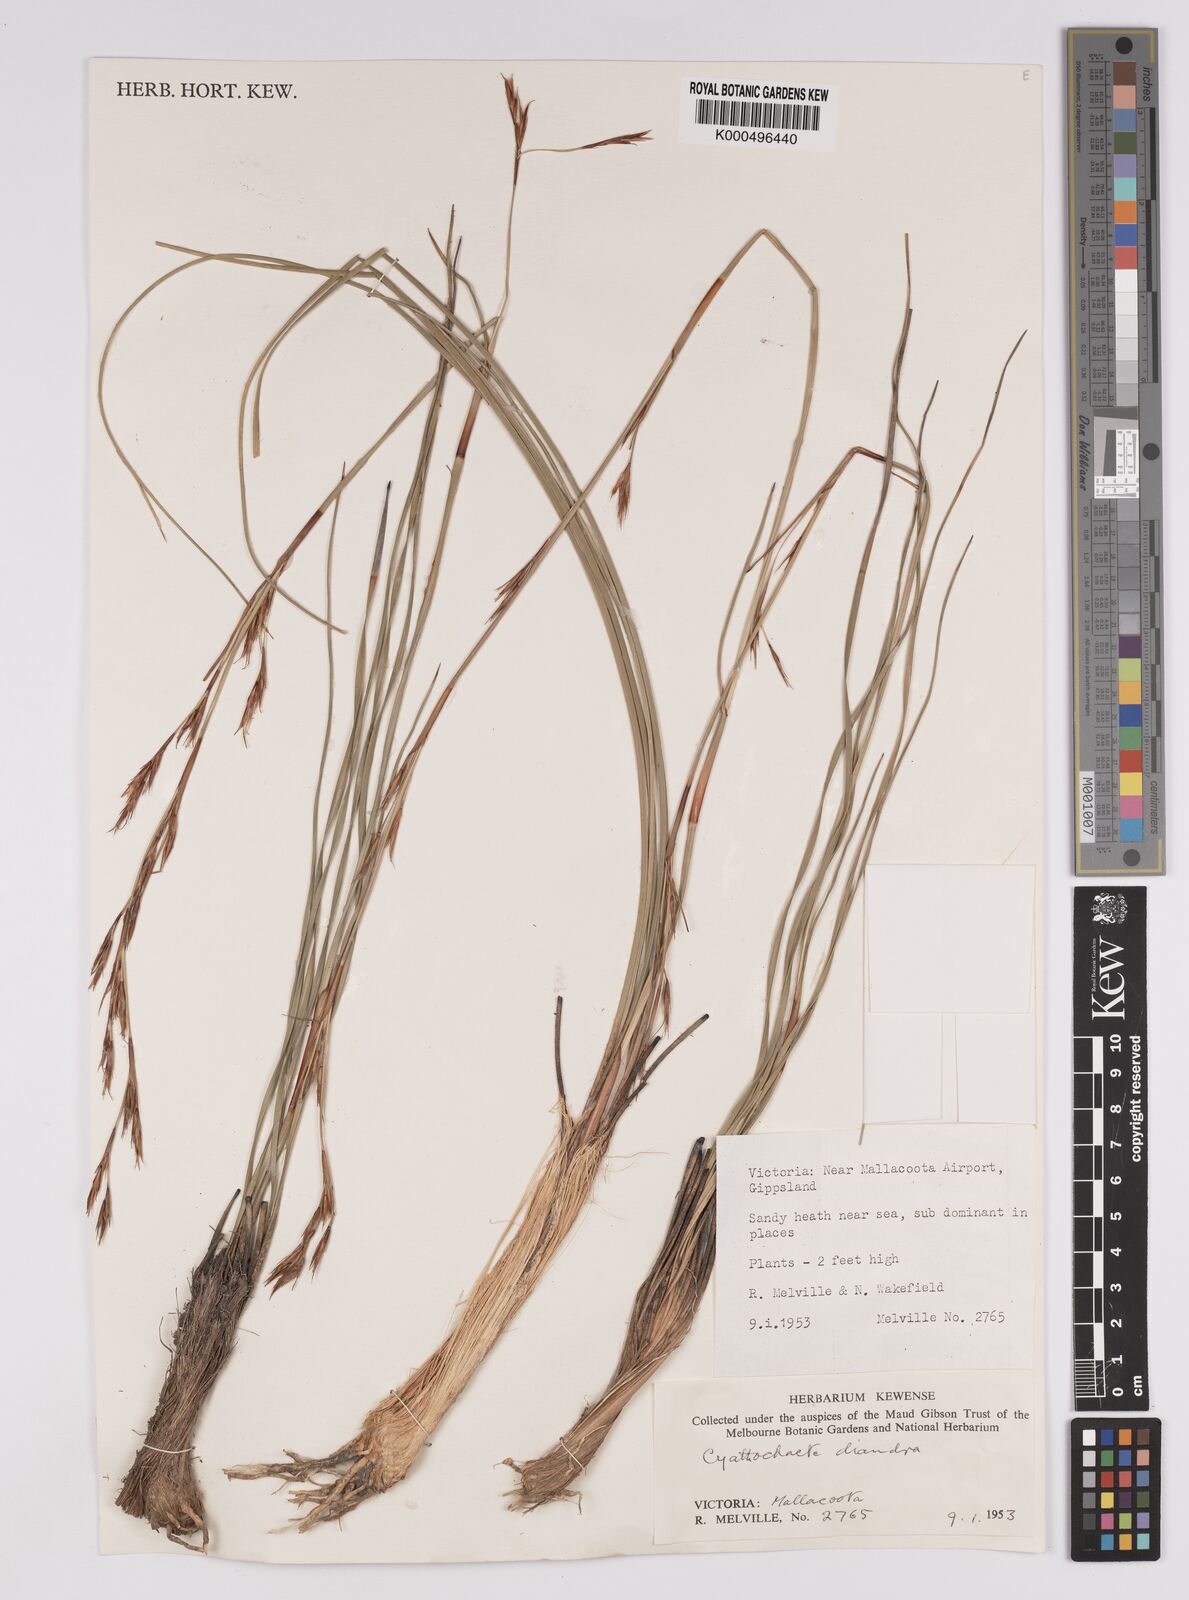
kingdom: Plantae
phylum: Tracheophyta
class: Liliopsida
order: Poales
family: Cyperaceae
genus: Cyathochaeta
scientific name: Cyathochaeta diandra
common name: Sheath rush
